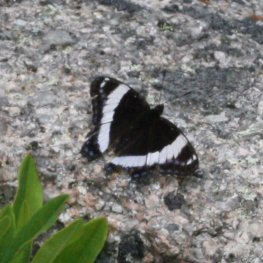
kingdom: Animalia
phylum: Arthropoda
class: Insecta
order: Lepidoptera
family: Nymphalidae
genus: Limenitis
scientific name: Limenitis arthemis
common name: Red-spotted Admiral
